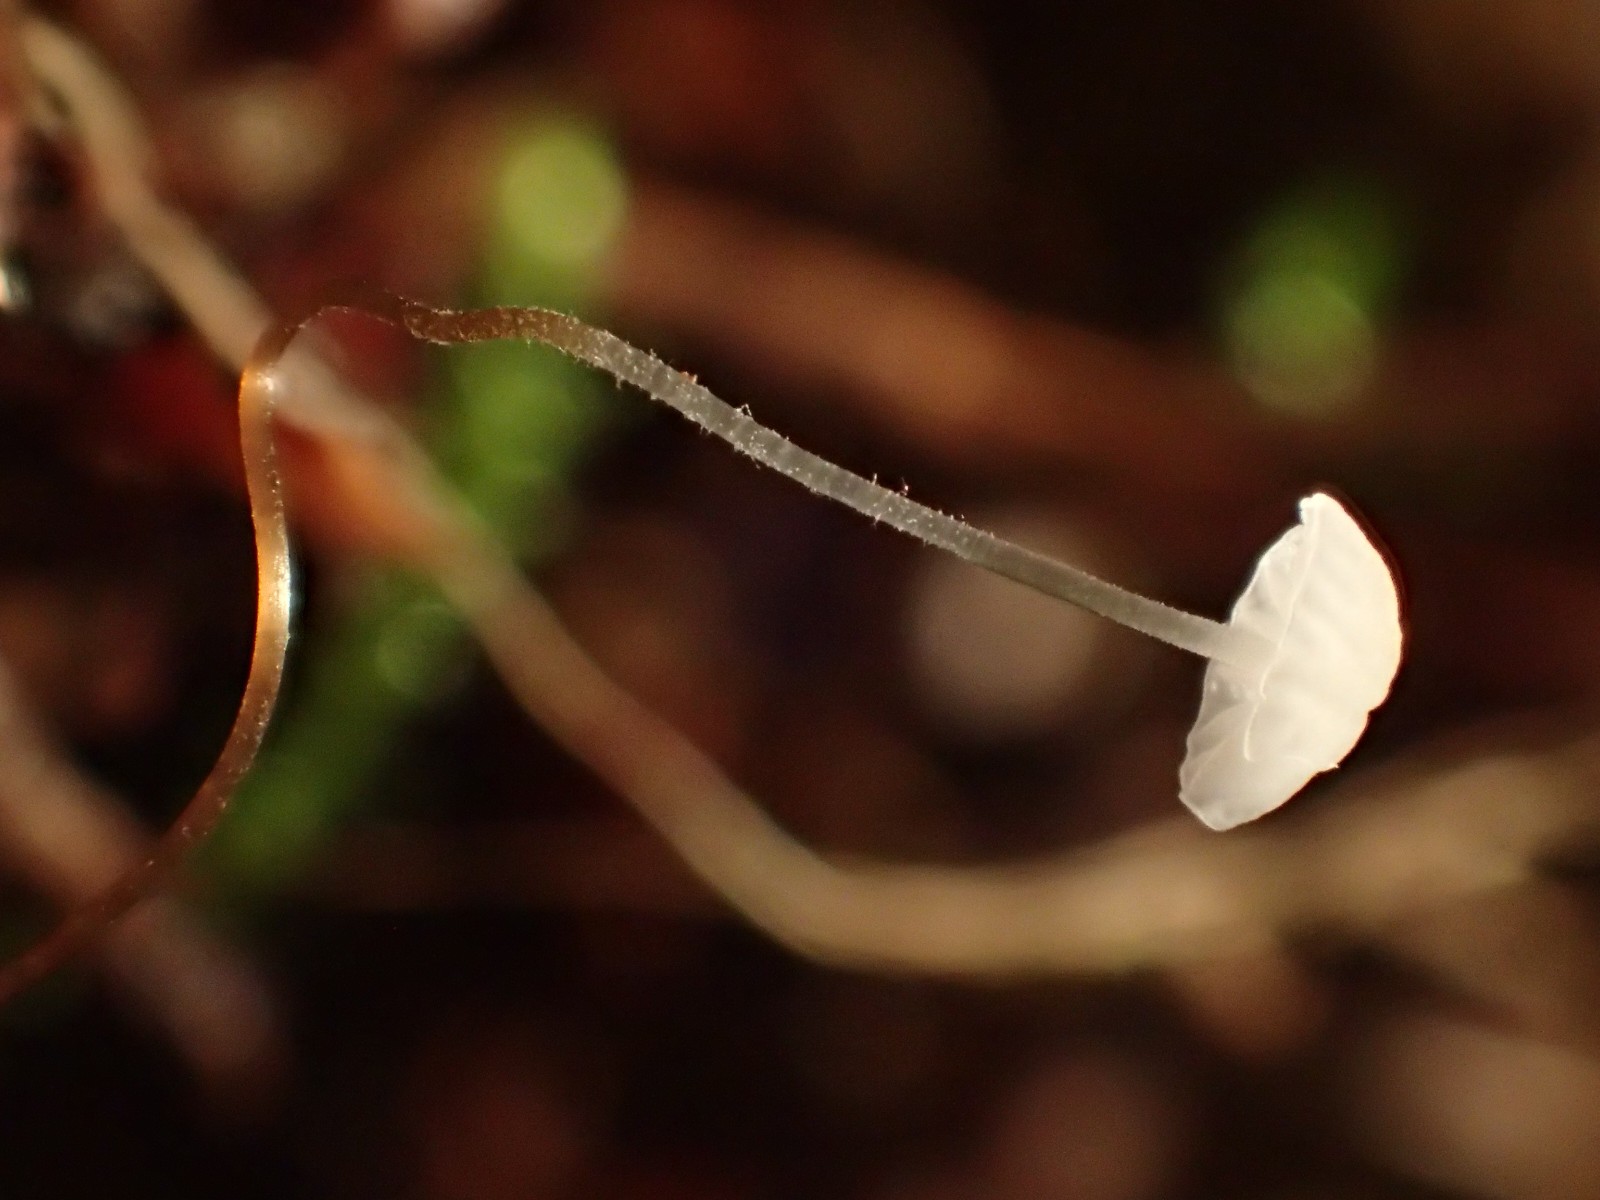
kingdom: Fungi
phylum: Basidiomycota
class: Agaricomycetes
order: Agaricales
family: Physalacriaceae
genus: Rhizomarasmius
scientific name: Rhizomarasmius setosus
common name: bøgeblads-bruskhat
